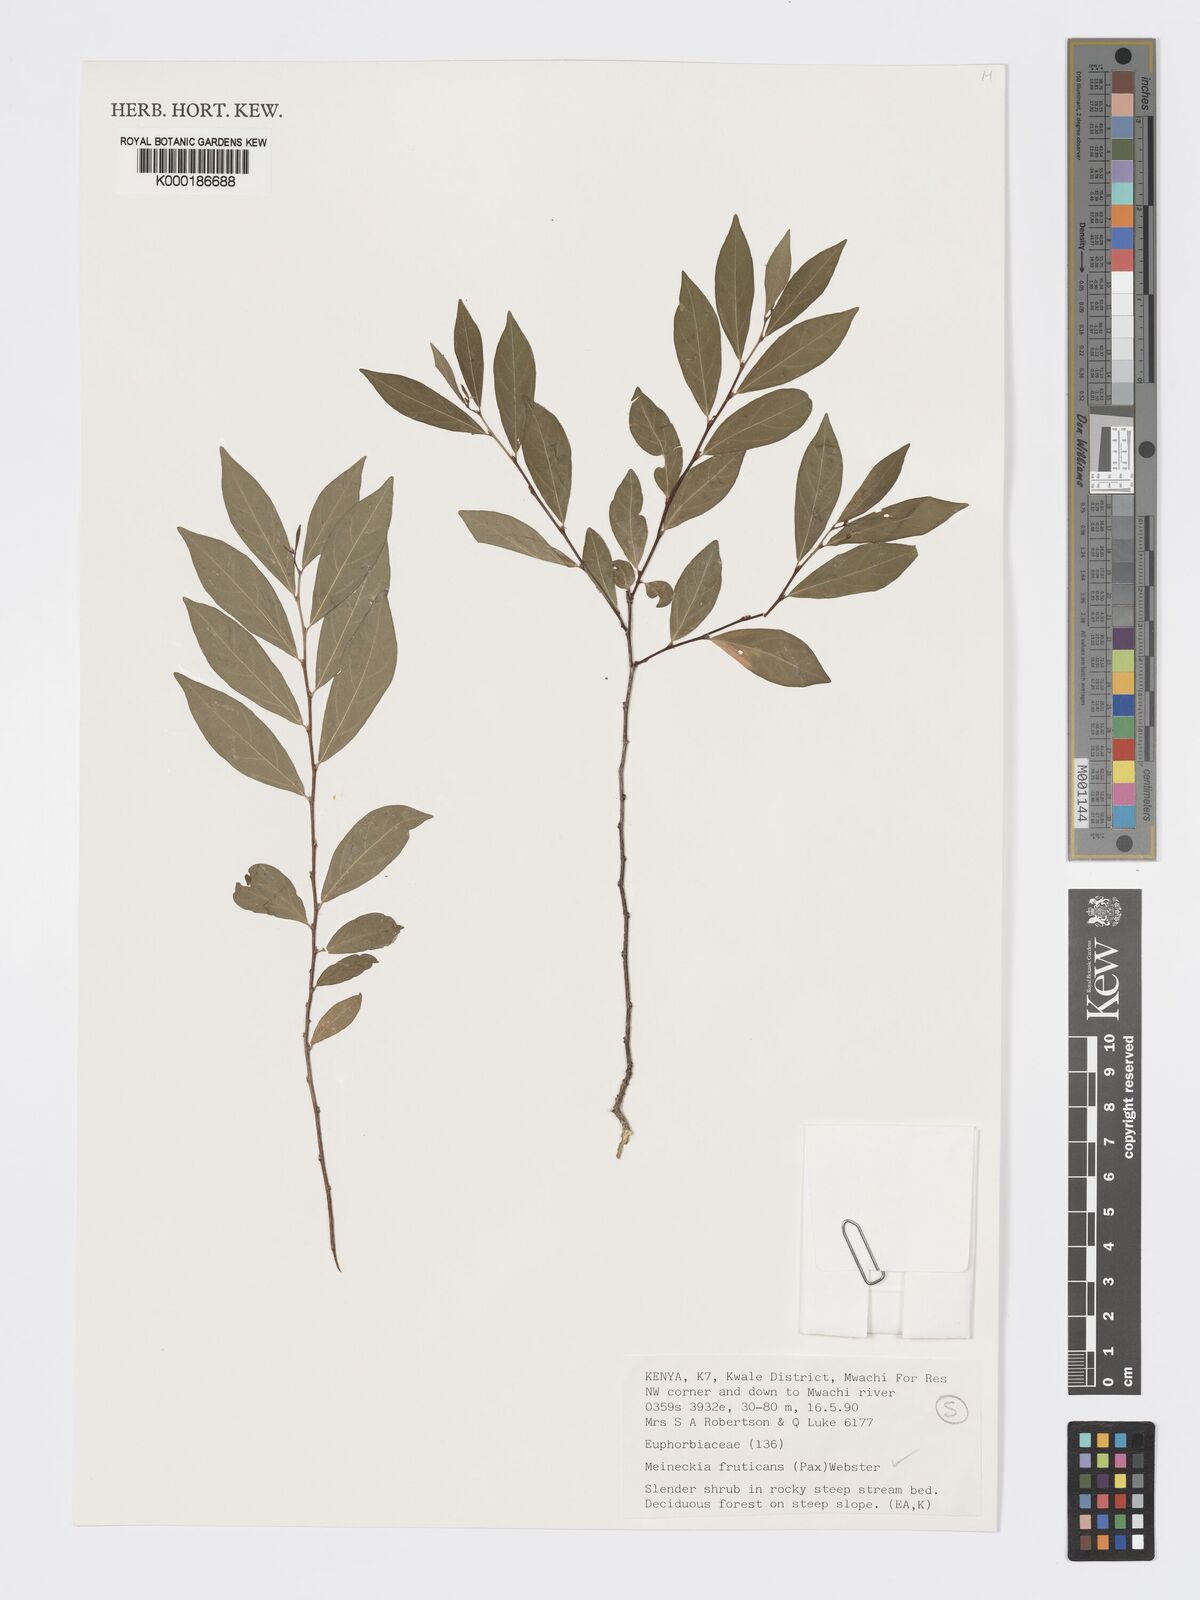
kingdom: Plantae
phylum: Tracheophyta
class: Magnoliopsida
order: Malpighiales
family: Phyllanthaceae
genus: Meineckia
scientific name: Meineckia fruticans
